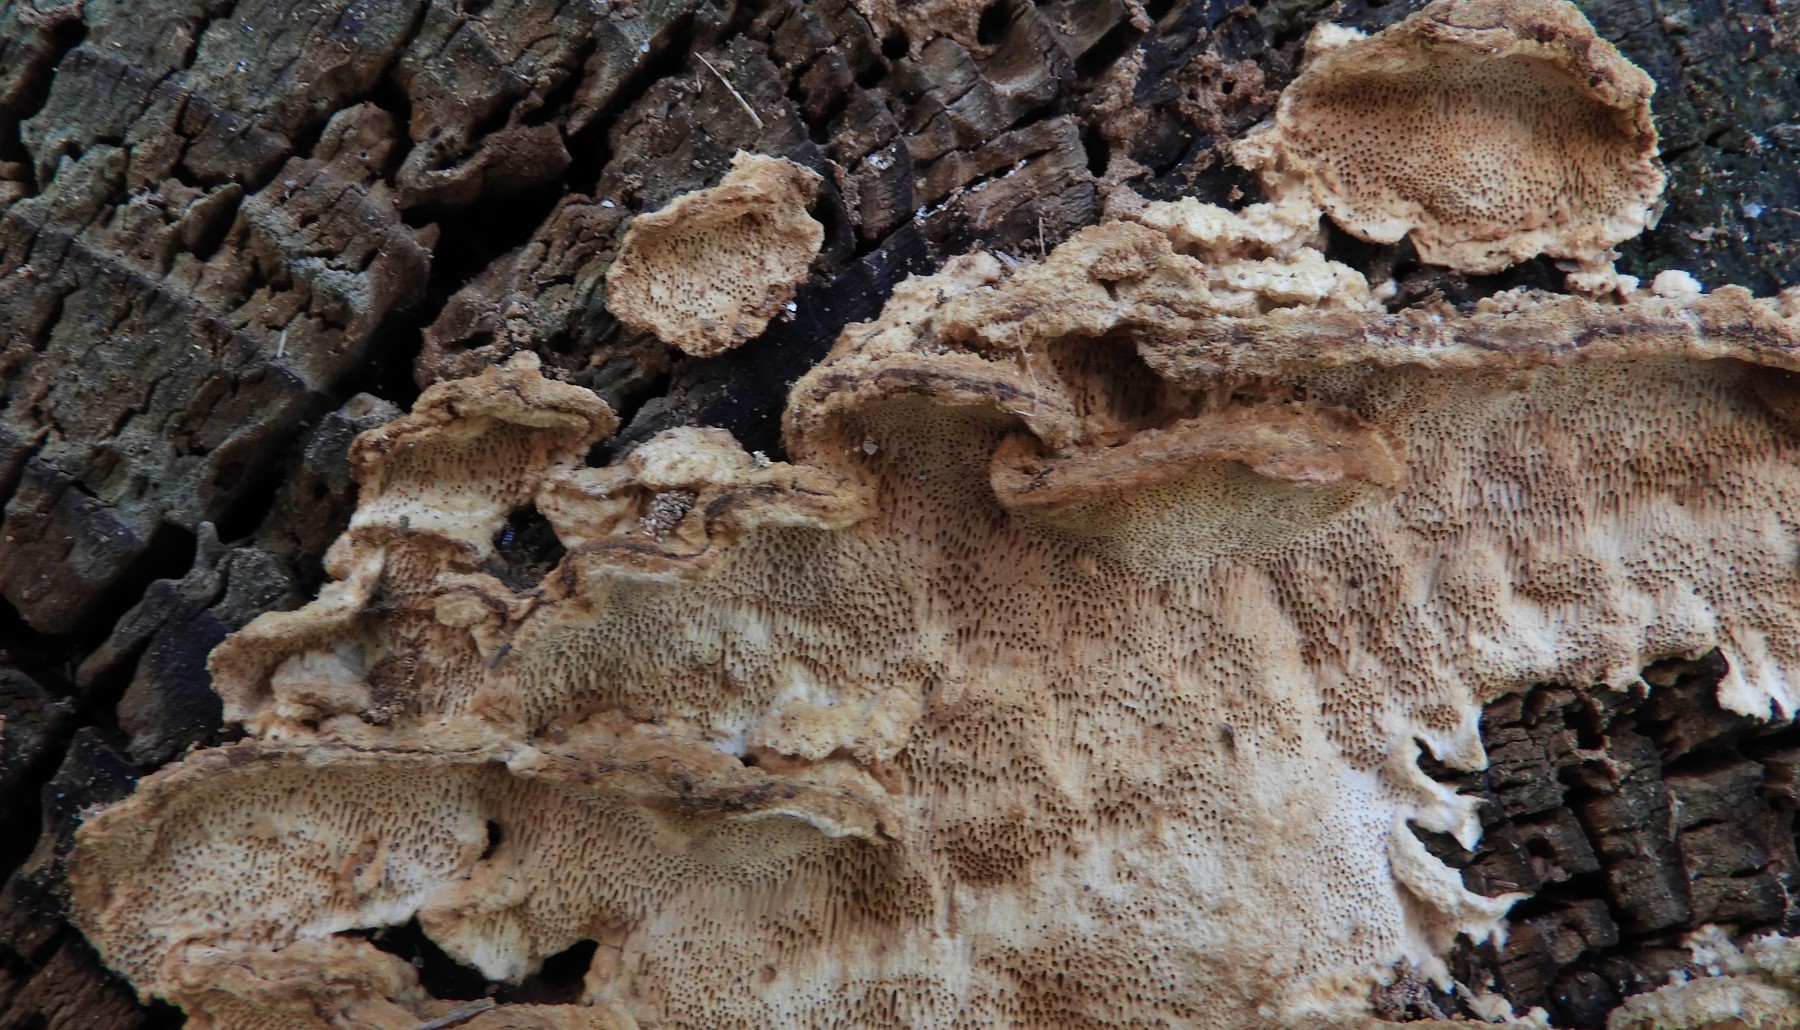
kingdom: Fungi
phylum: Basidiomycota
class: Agaricomycetes
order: Polyporales
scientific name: Polyporales
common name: poresvampordenen
